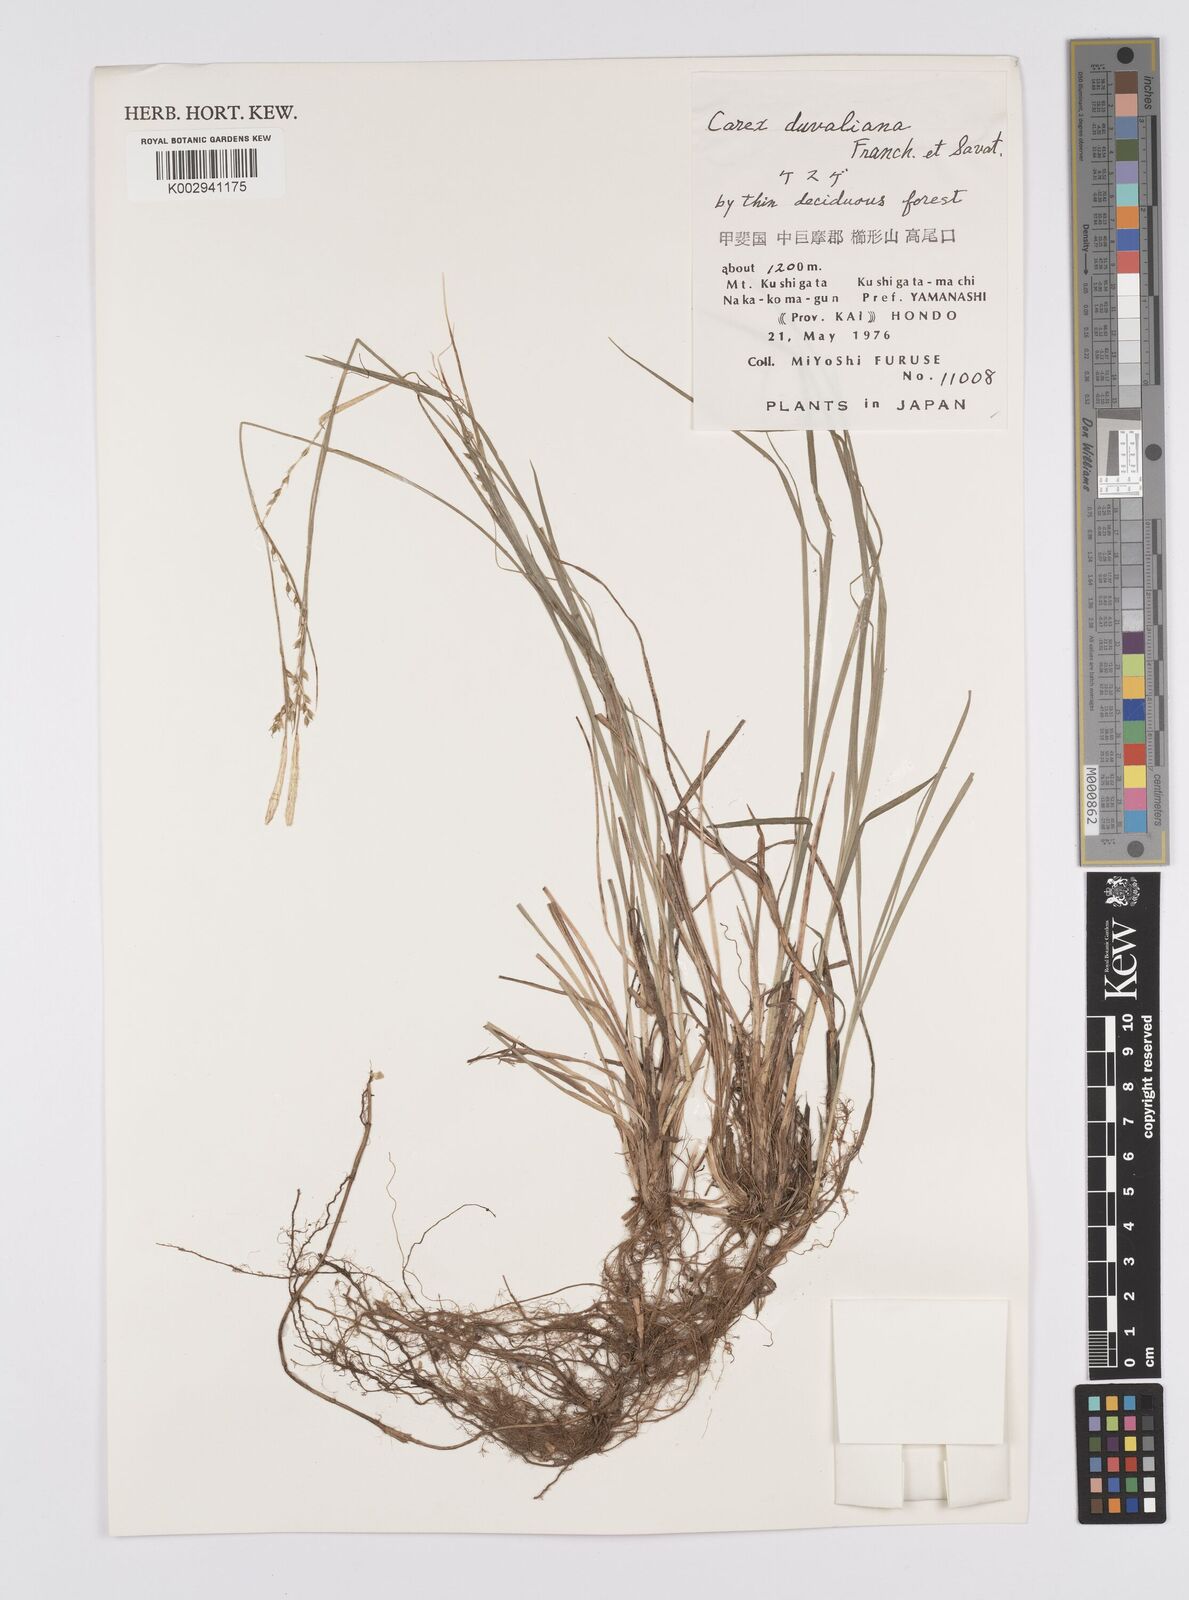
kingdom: Plantae
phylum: Tracheophyta
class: Liliopsida
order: Poales
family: Cyperaceae
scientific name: Cyperaceae
